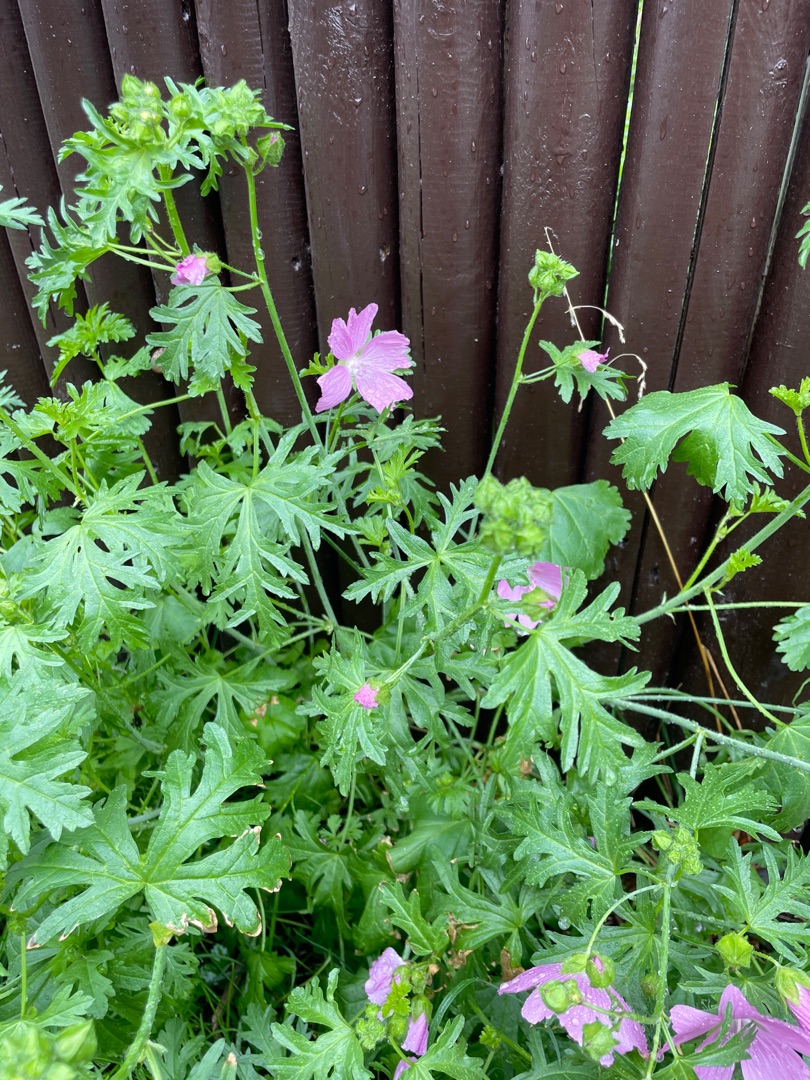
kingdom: Plantae
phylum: Tracheophyta
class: Magnoliopsida
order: Malvales
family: Malvaceae
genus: Malva
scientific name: Malva moschata
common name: Moskus-katost
